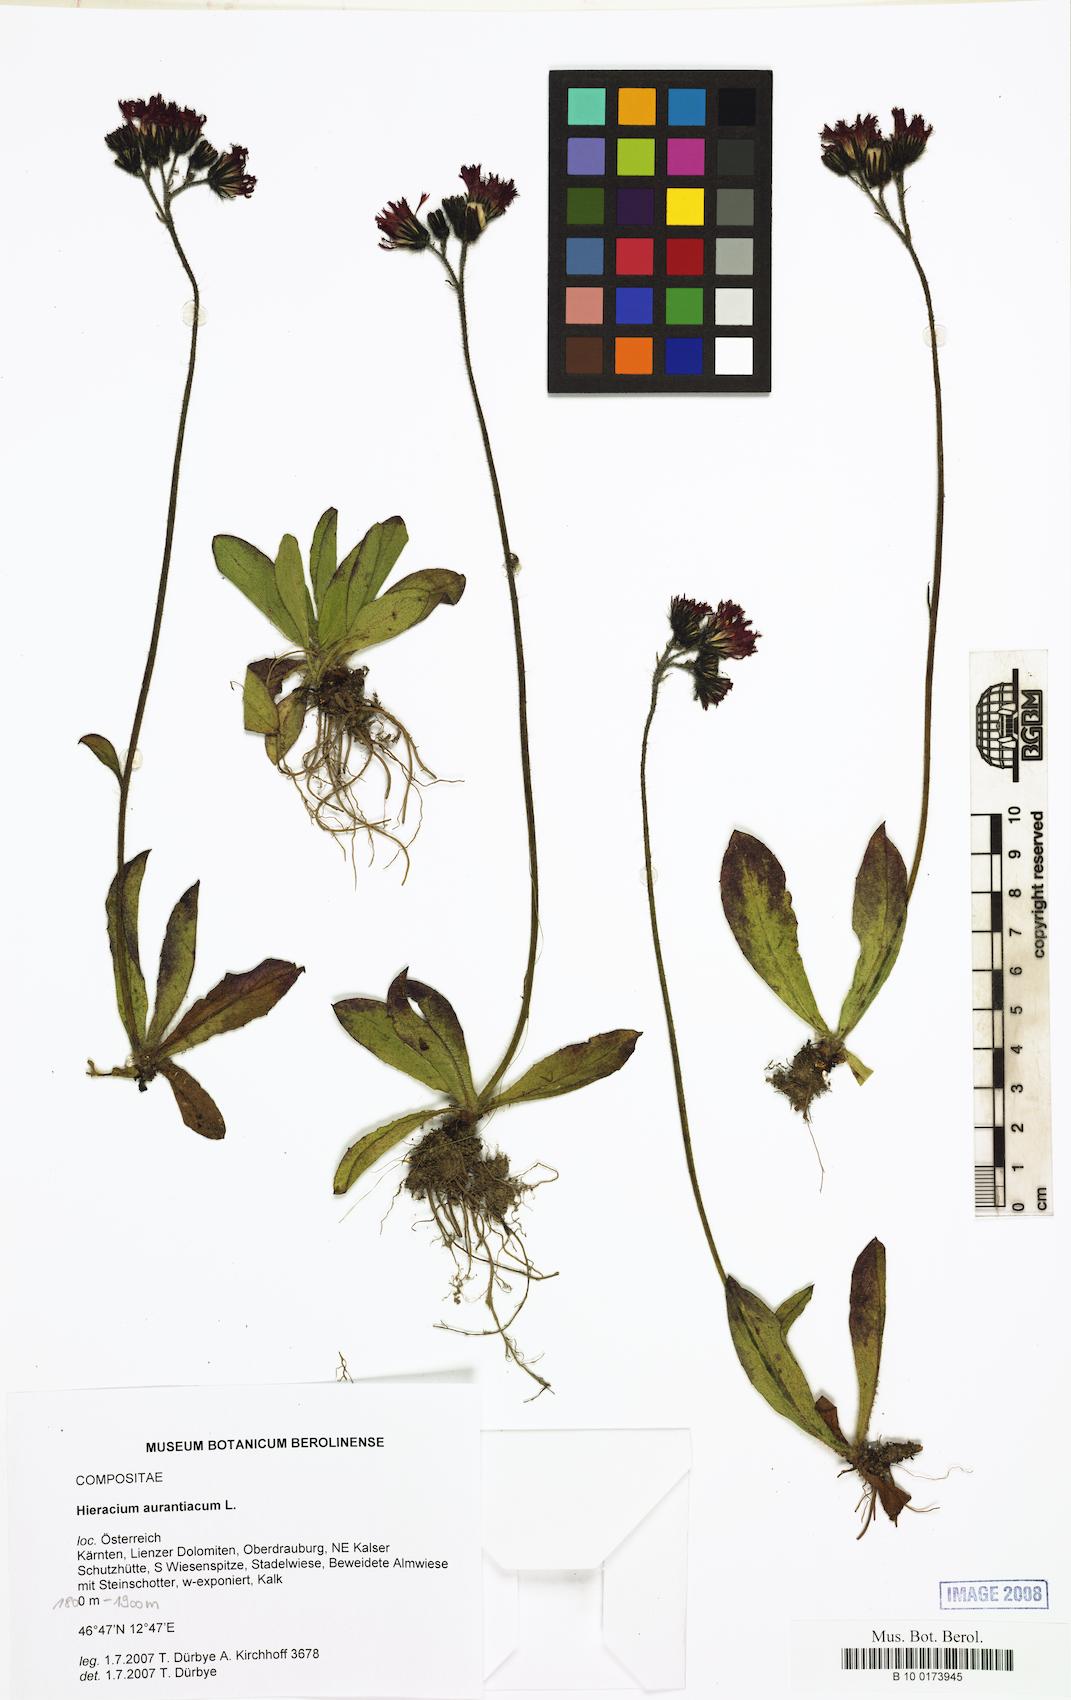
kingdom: Plantae
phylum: Tracheophyta
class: Magnoliopsida
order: Asterales
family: Asteraceae
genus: Pilosella
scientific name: Pilosella aurantiaca
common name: Fox-and-cubs
